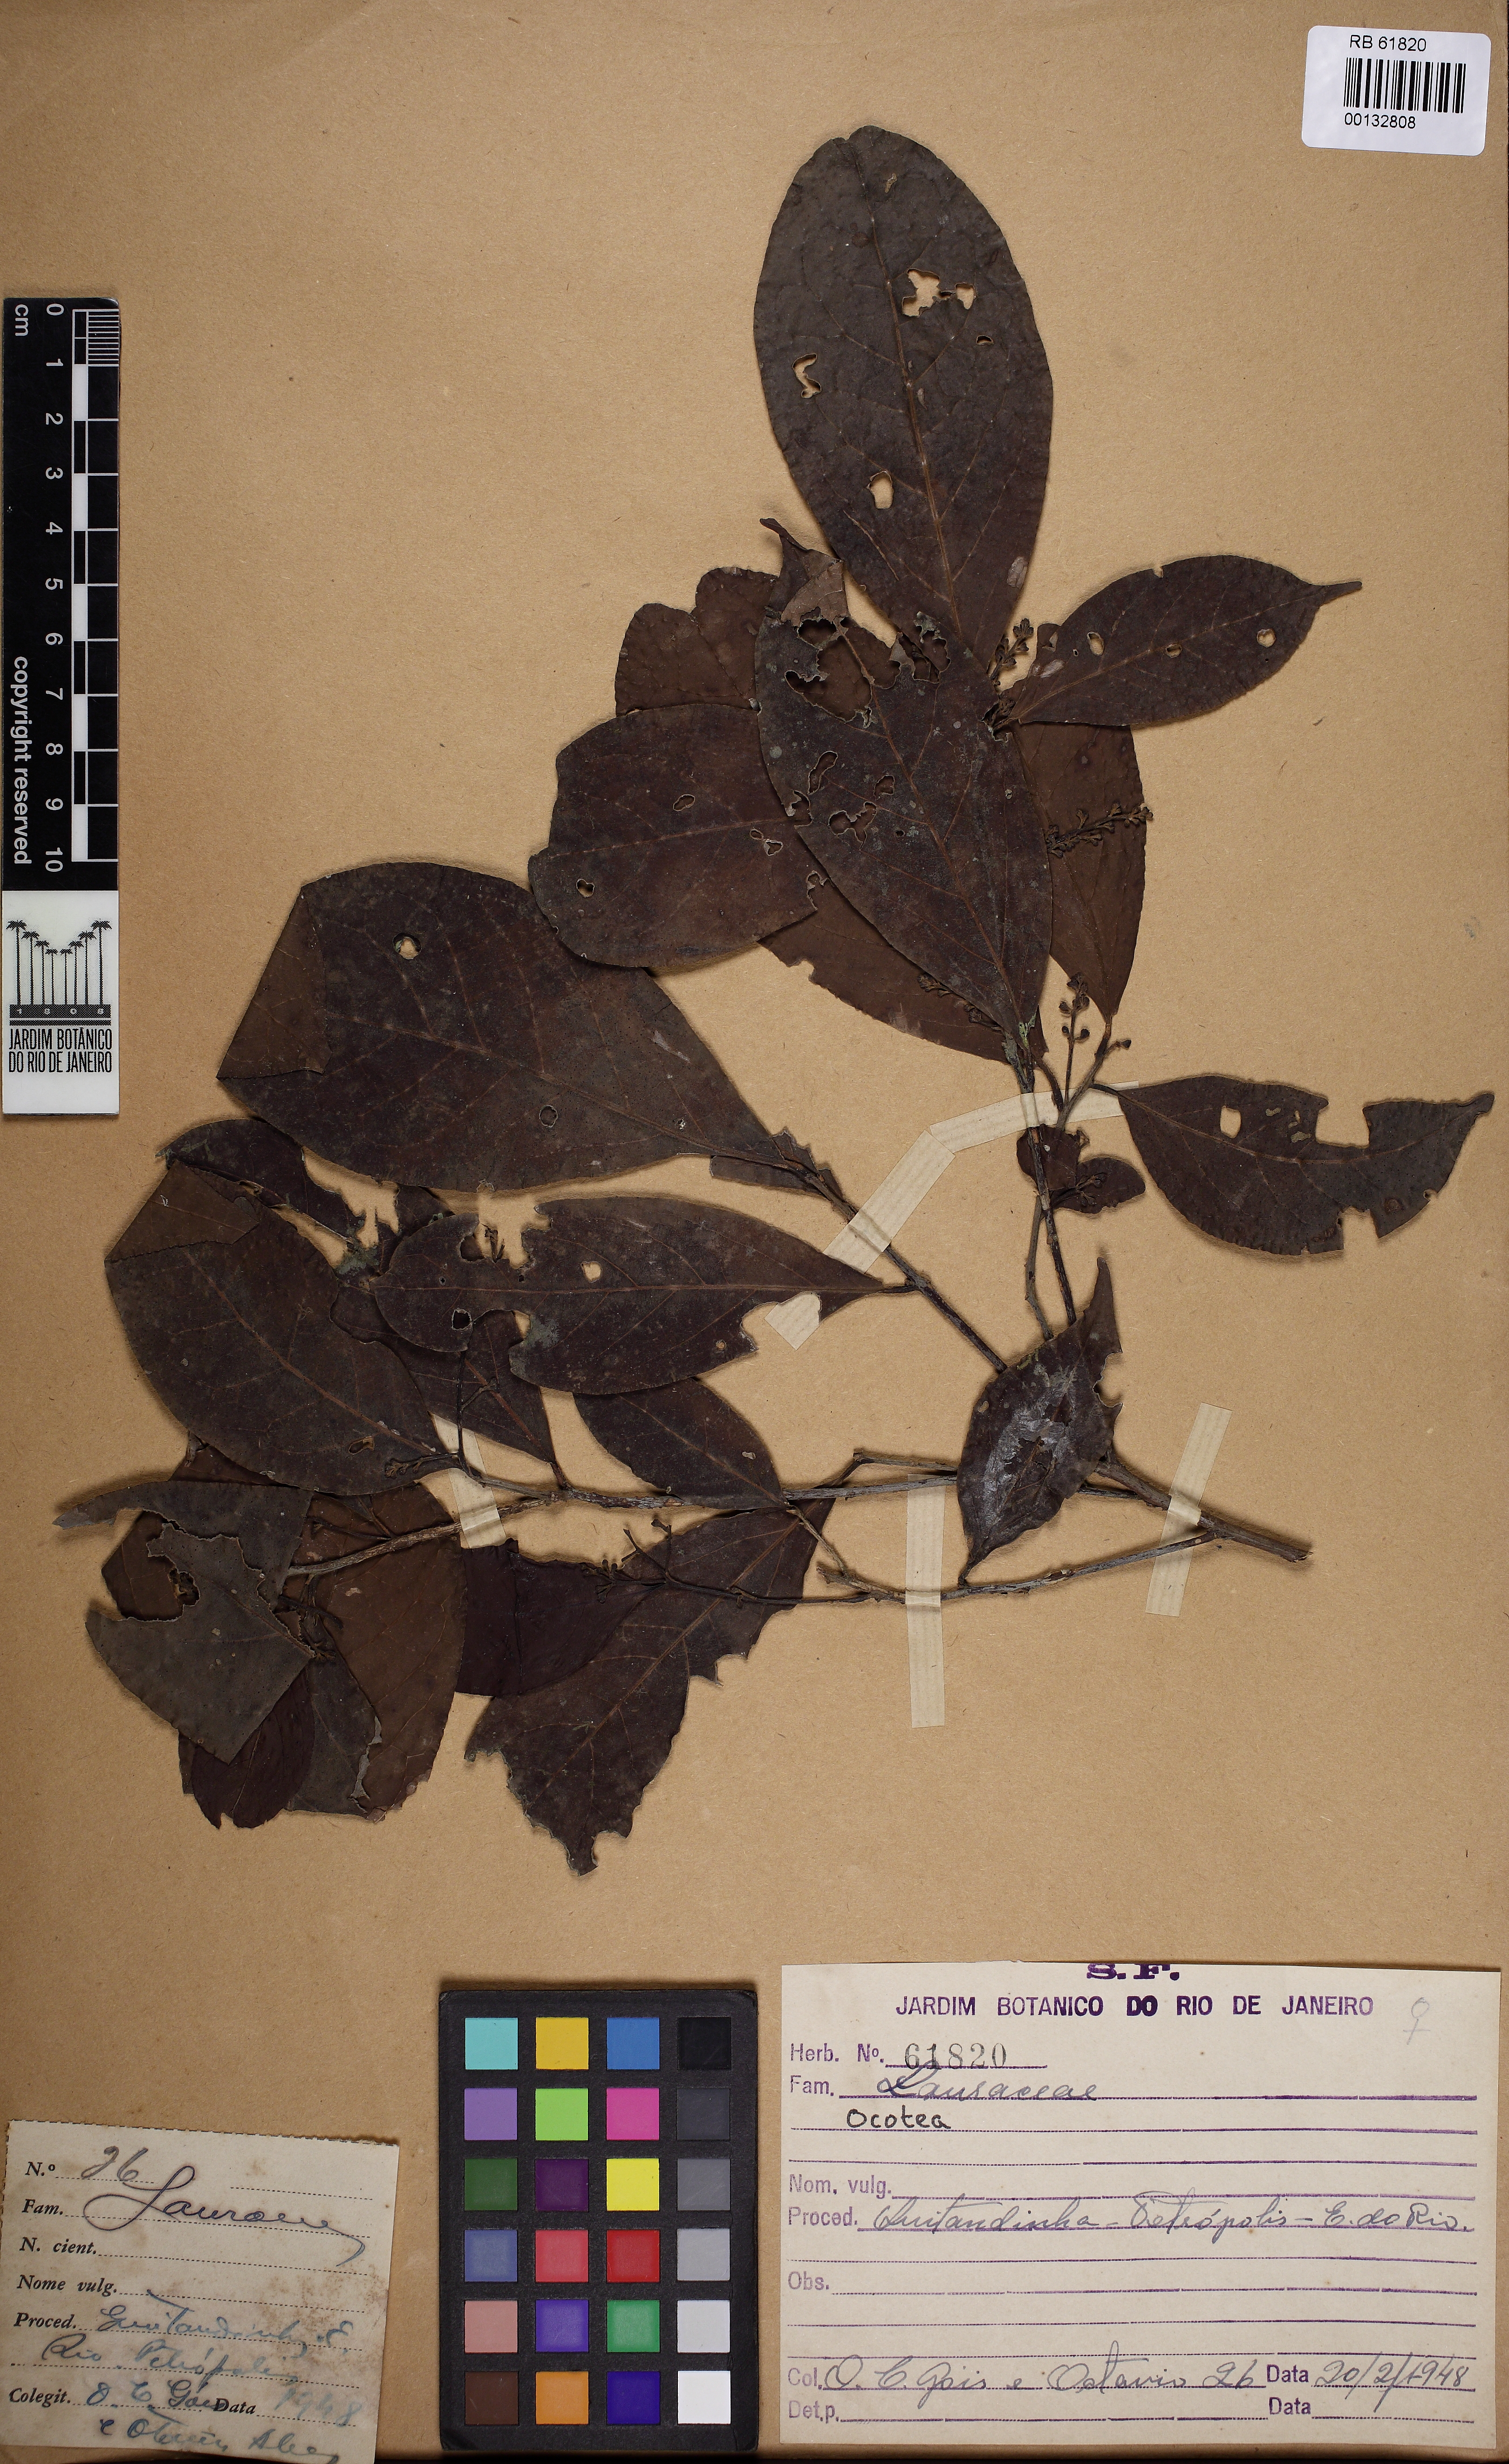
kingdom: Plantae
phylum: Tracheophyta
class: Magnoliopsida
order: Laurales
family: Lauraceae
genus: Ocotea
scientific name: Ocotea
